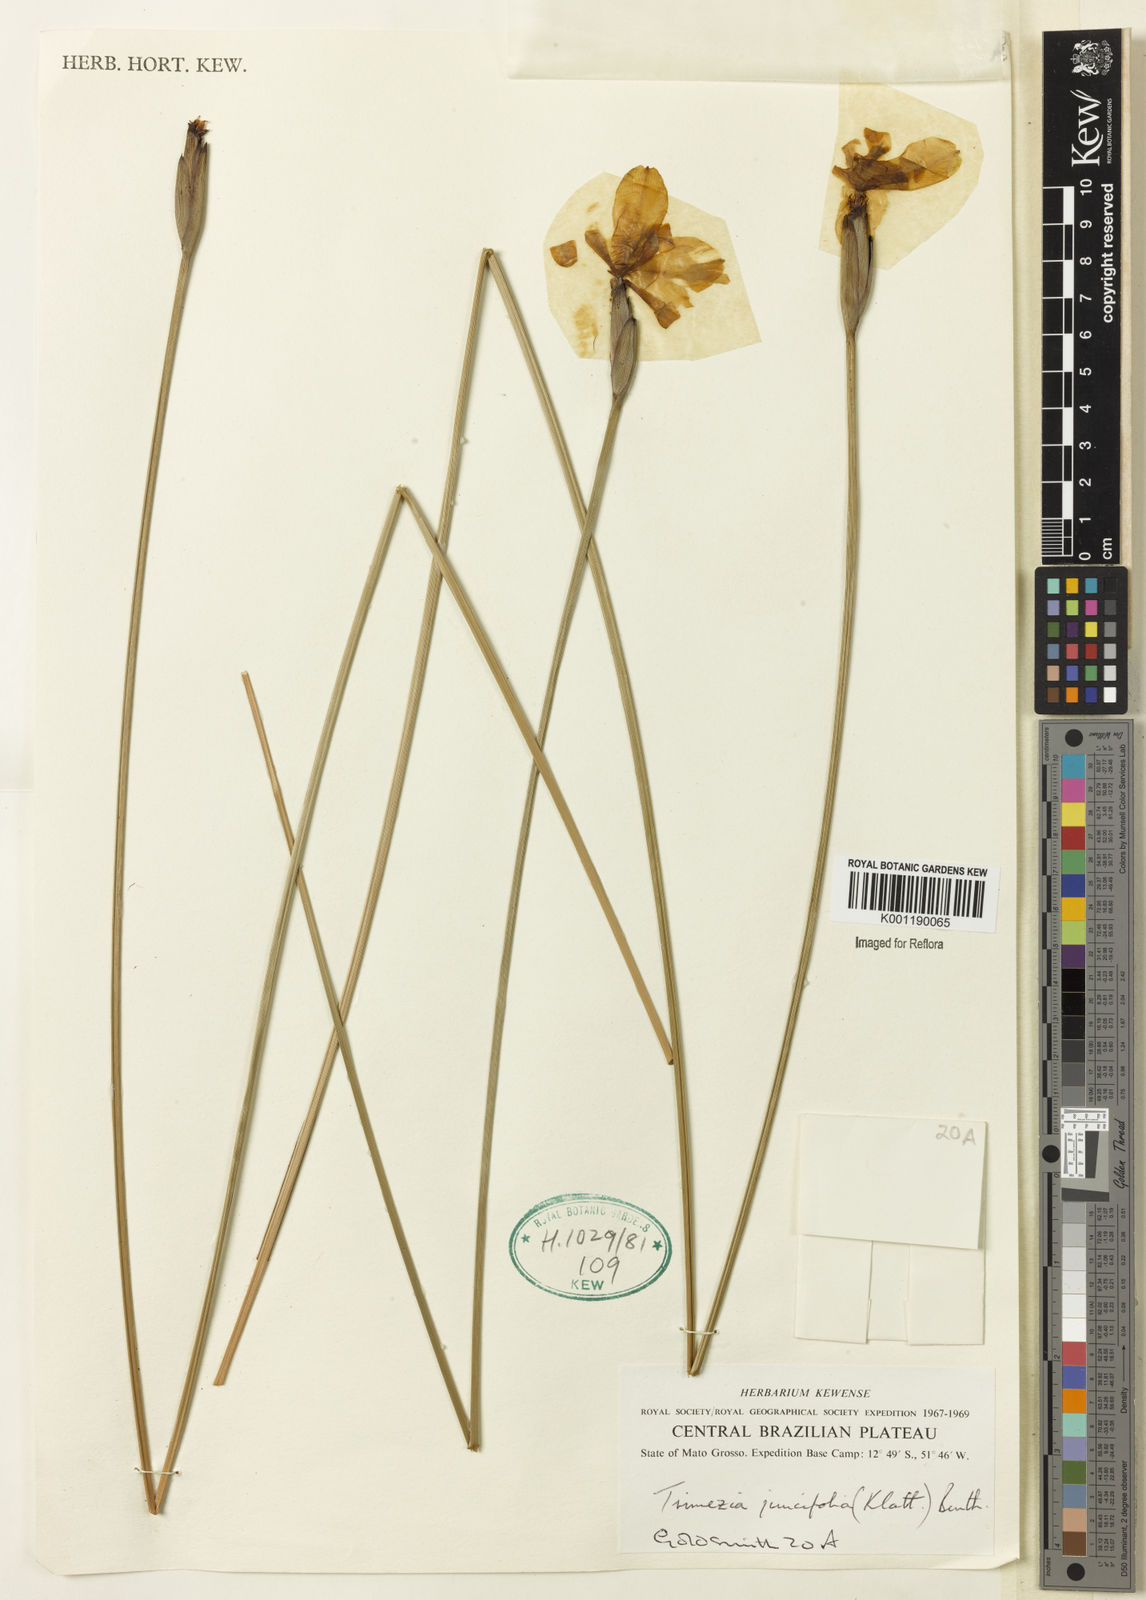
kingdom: Plantae
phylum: Tracheophyta
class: Liliopsida
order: Asparagales
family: Iridaceae
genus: Trimezia
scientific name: Trimezia juncifolia
